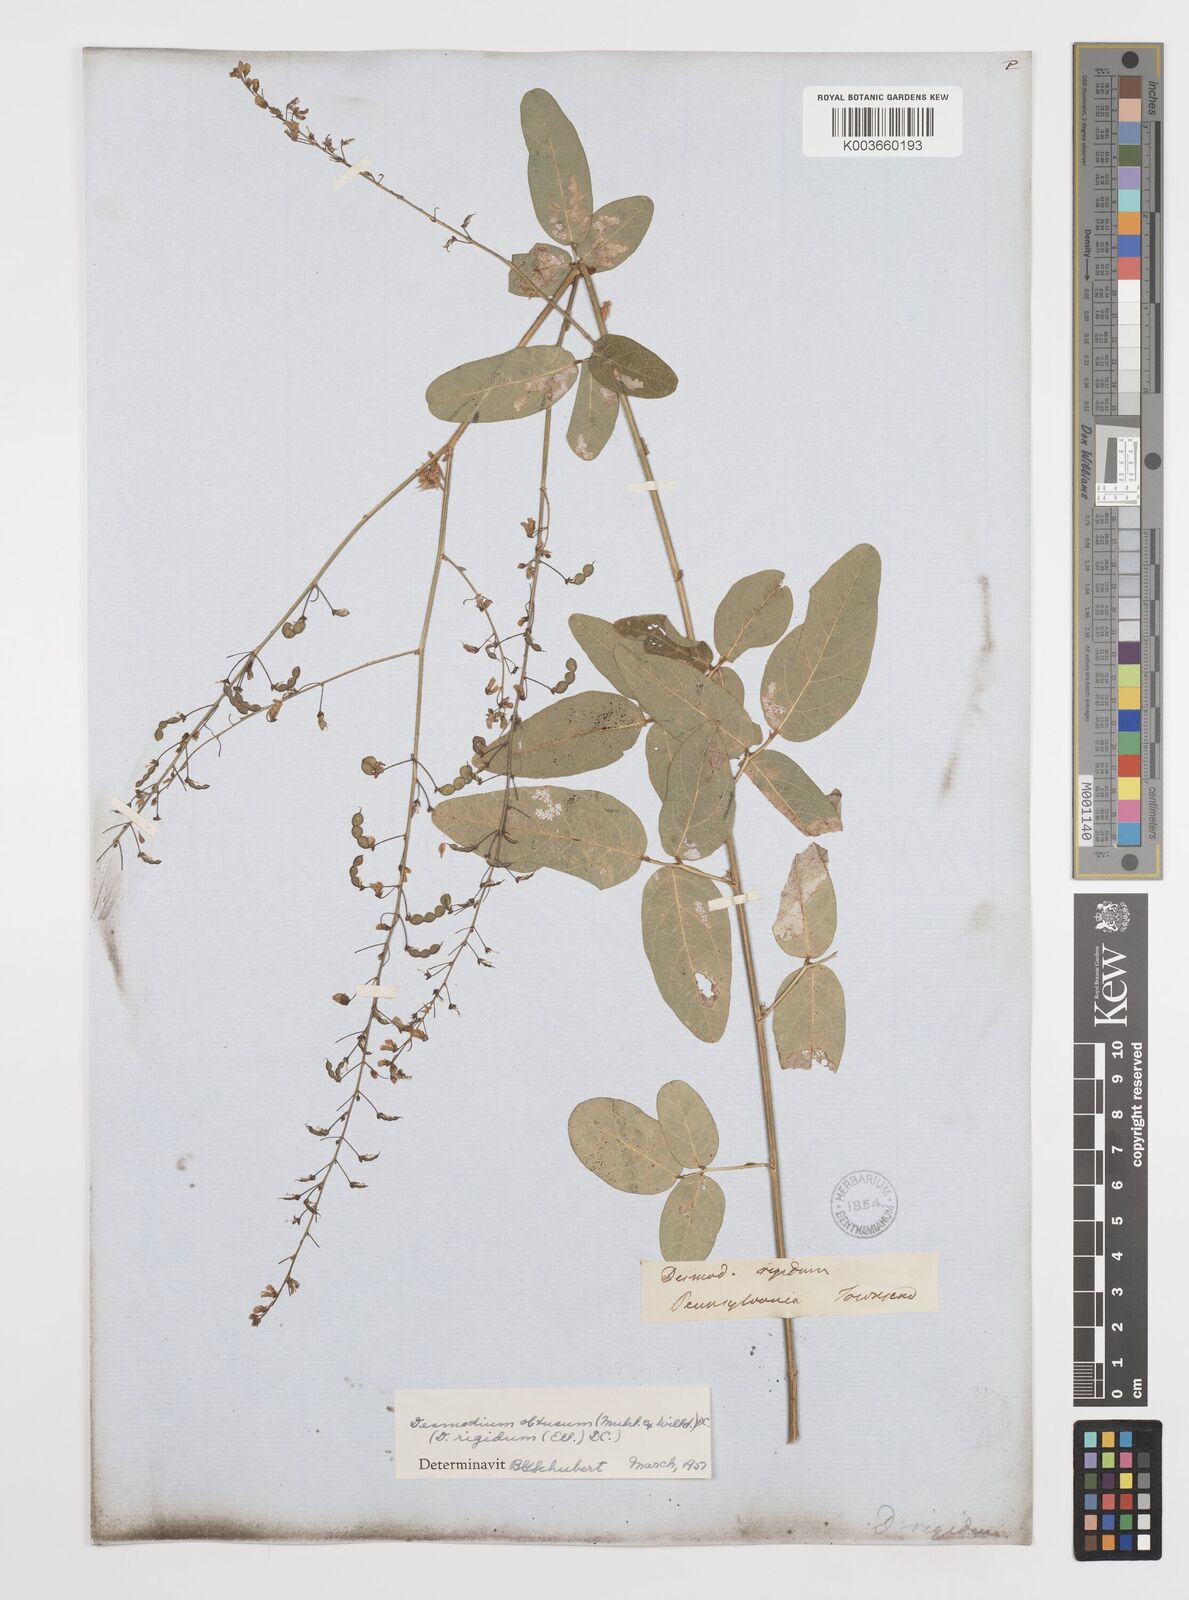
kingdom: Plantae
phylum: Tracheophyta
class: Magnoliopsida
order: Fabales
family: Fabaceae
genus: Desmodium
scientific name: Desmodium obtusum
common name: Stiff tick trefoil
